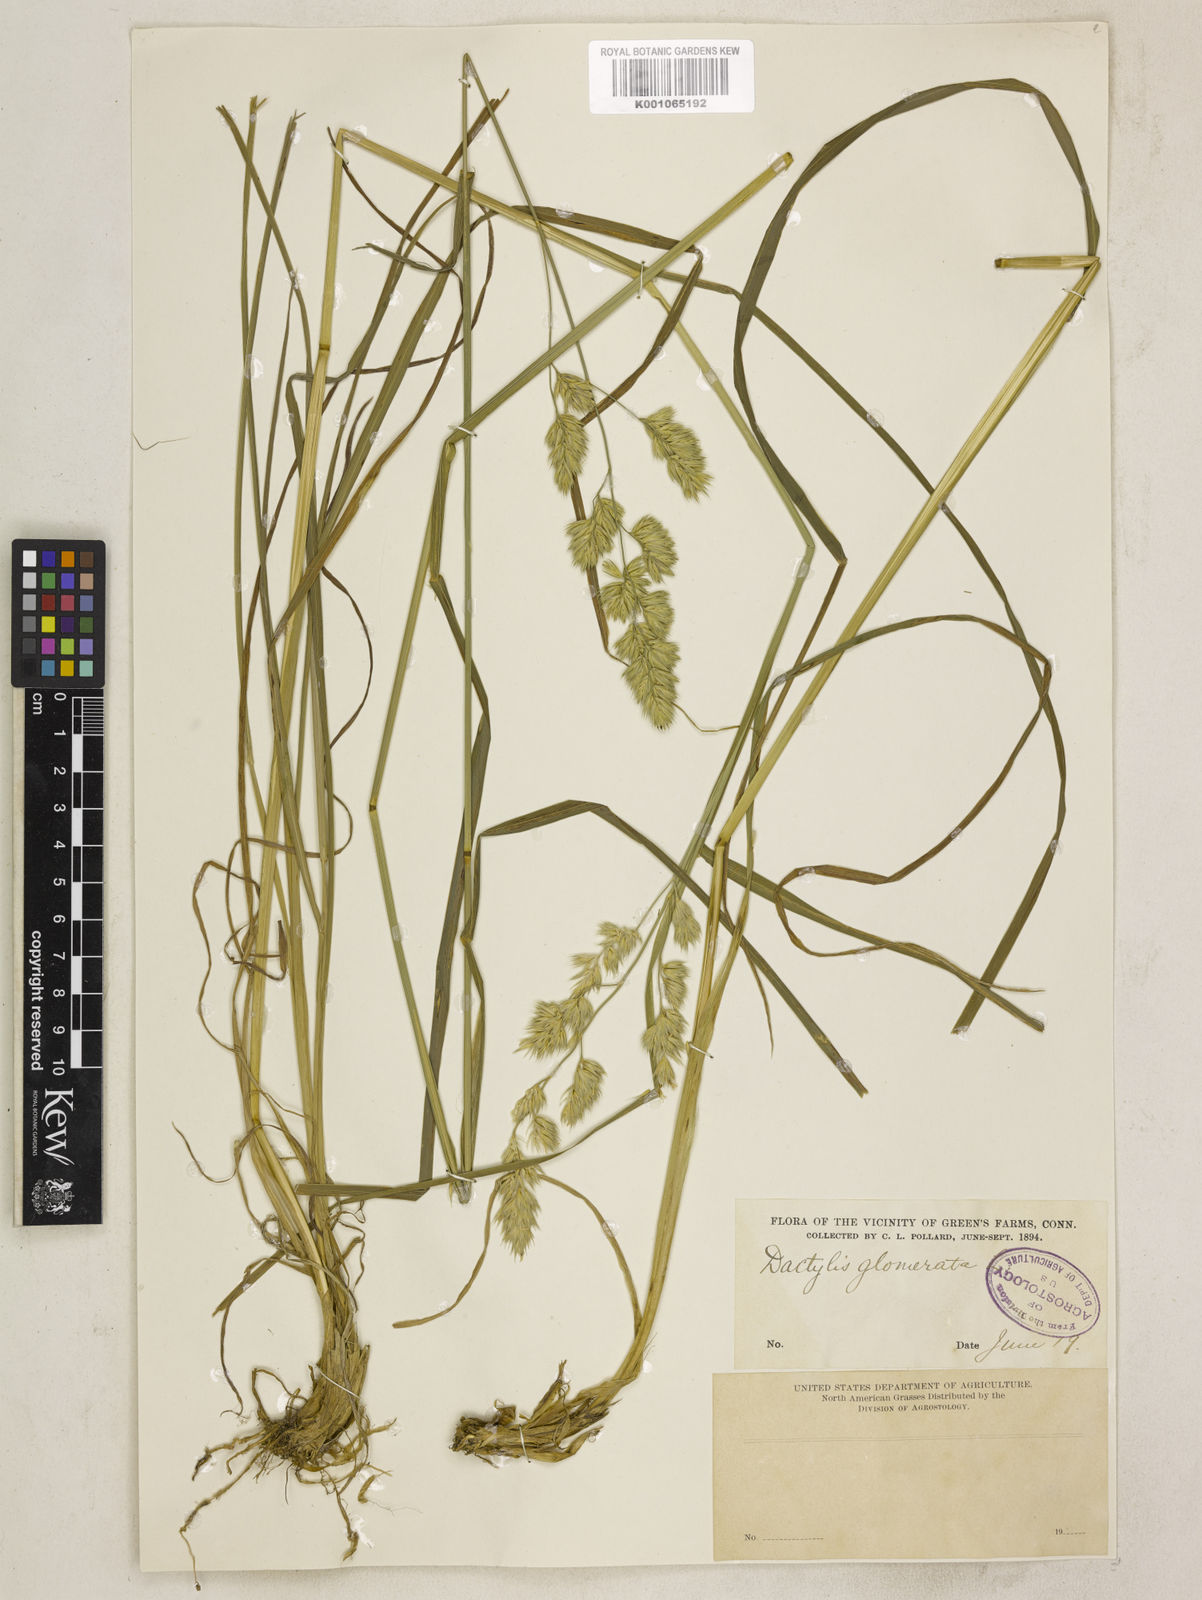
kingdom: Plantae
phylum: Tracheophyta
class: Liliopsida
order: Poales
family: Poaceae
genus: Dactylis
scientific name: Dactylis glomerata
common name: Orchardgrass
